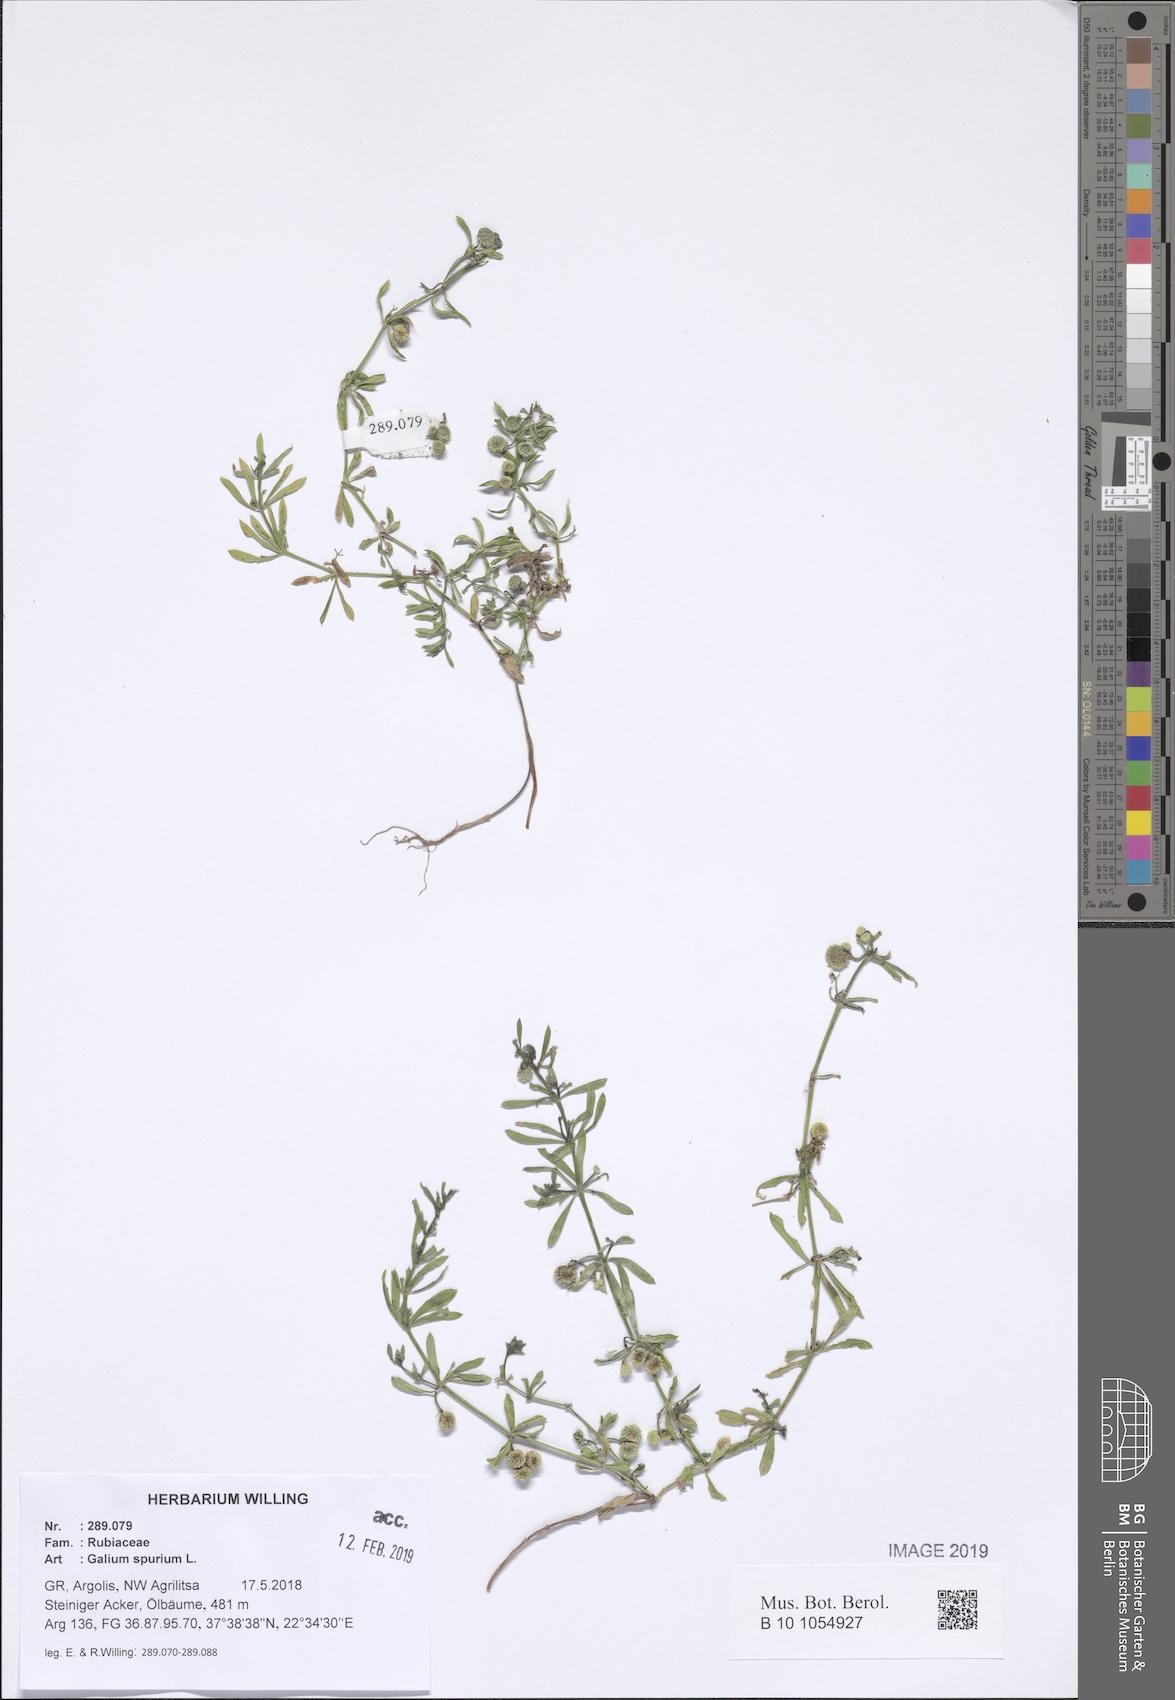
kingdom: Plantae
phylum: Tracheophyta
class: Magnoliopsida
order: Gentianales
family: Rubiaceae
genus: Galium
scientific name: Galium spurium
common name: False cleavers
